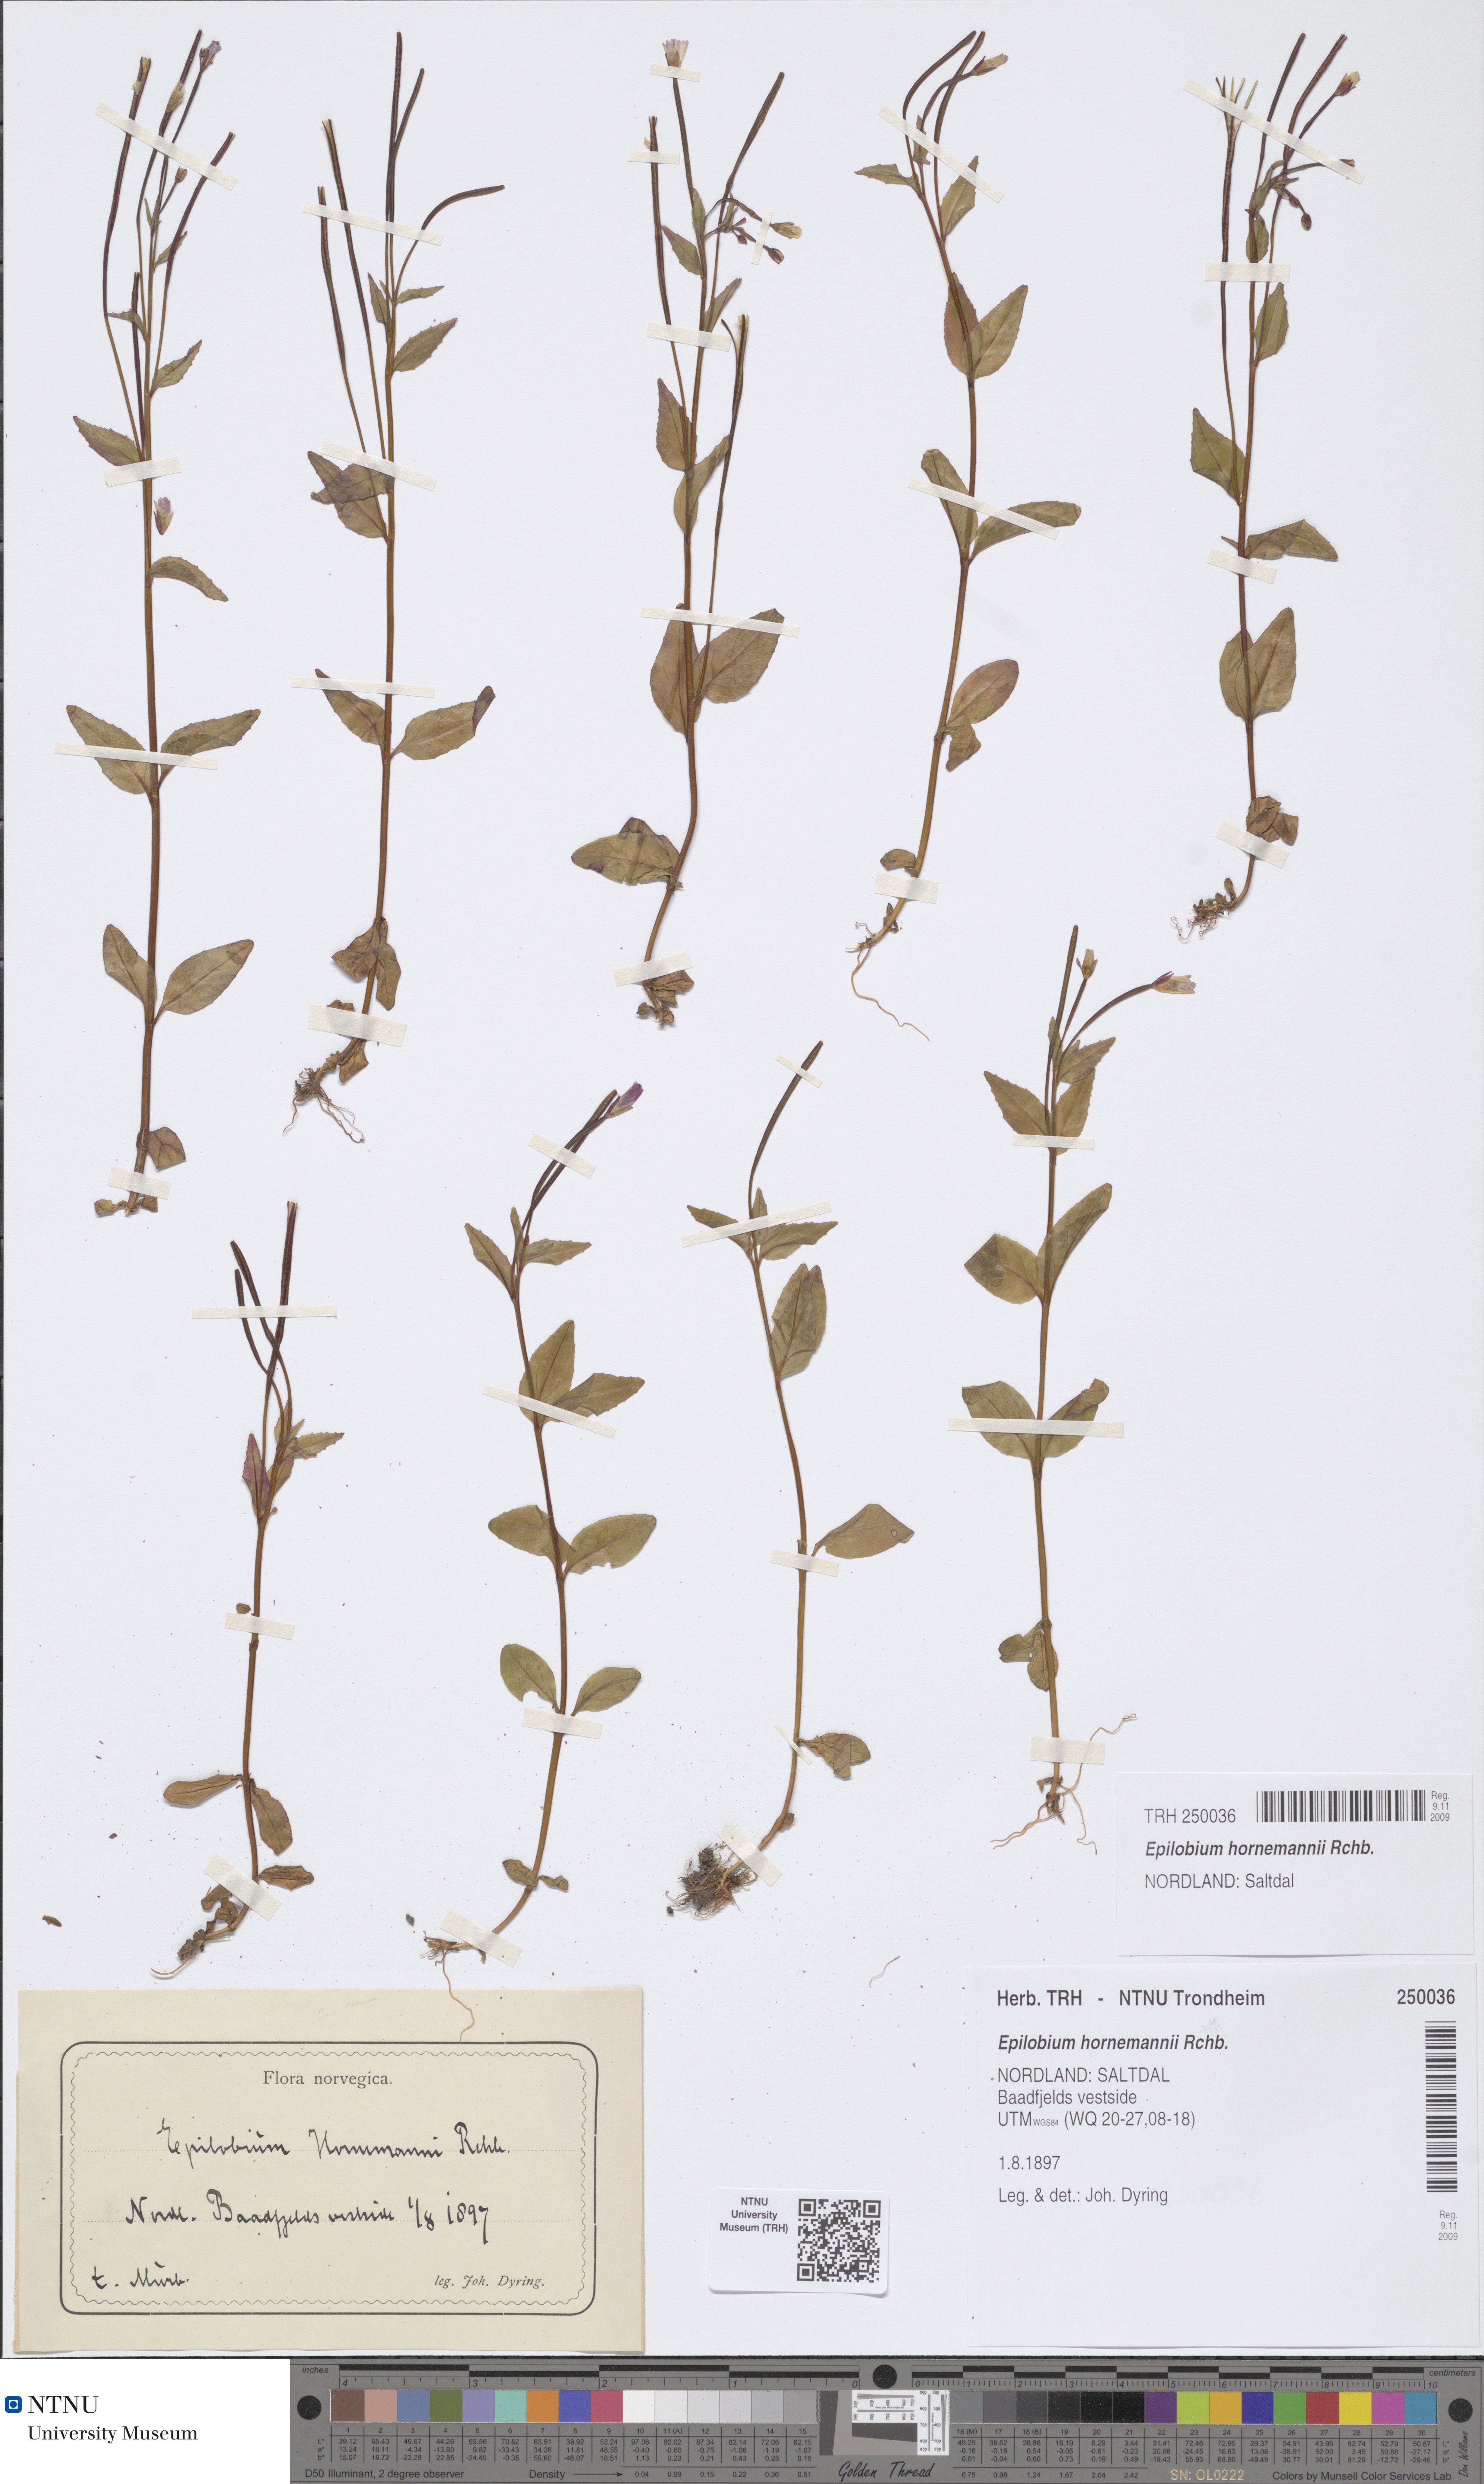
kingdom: Plantae
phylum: Tracheophyta
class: Magnoliopsida
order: Myrtales
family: Onagraceae
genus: Epilobium
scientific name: Epilobium hornemannii
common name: Hornemann's willowherb
